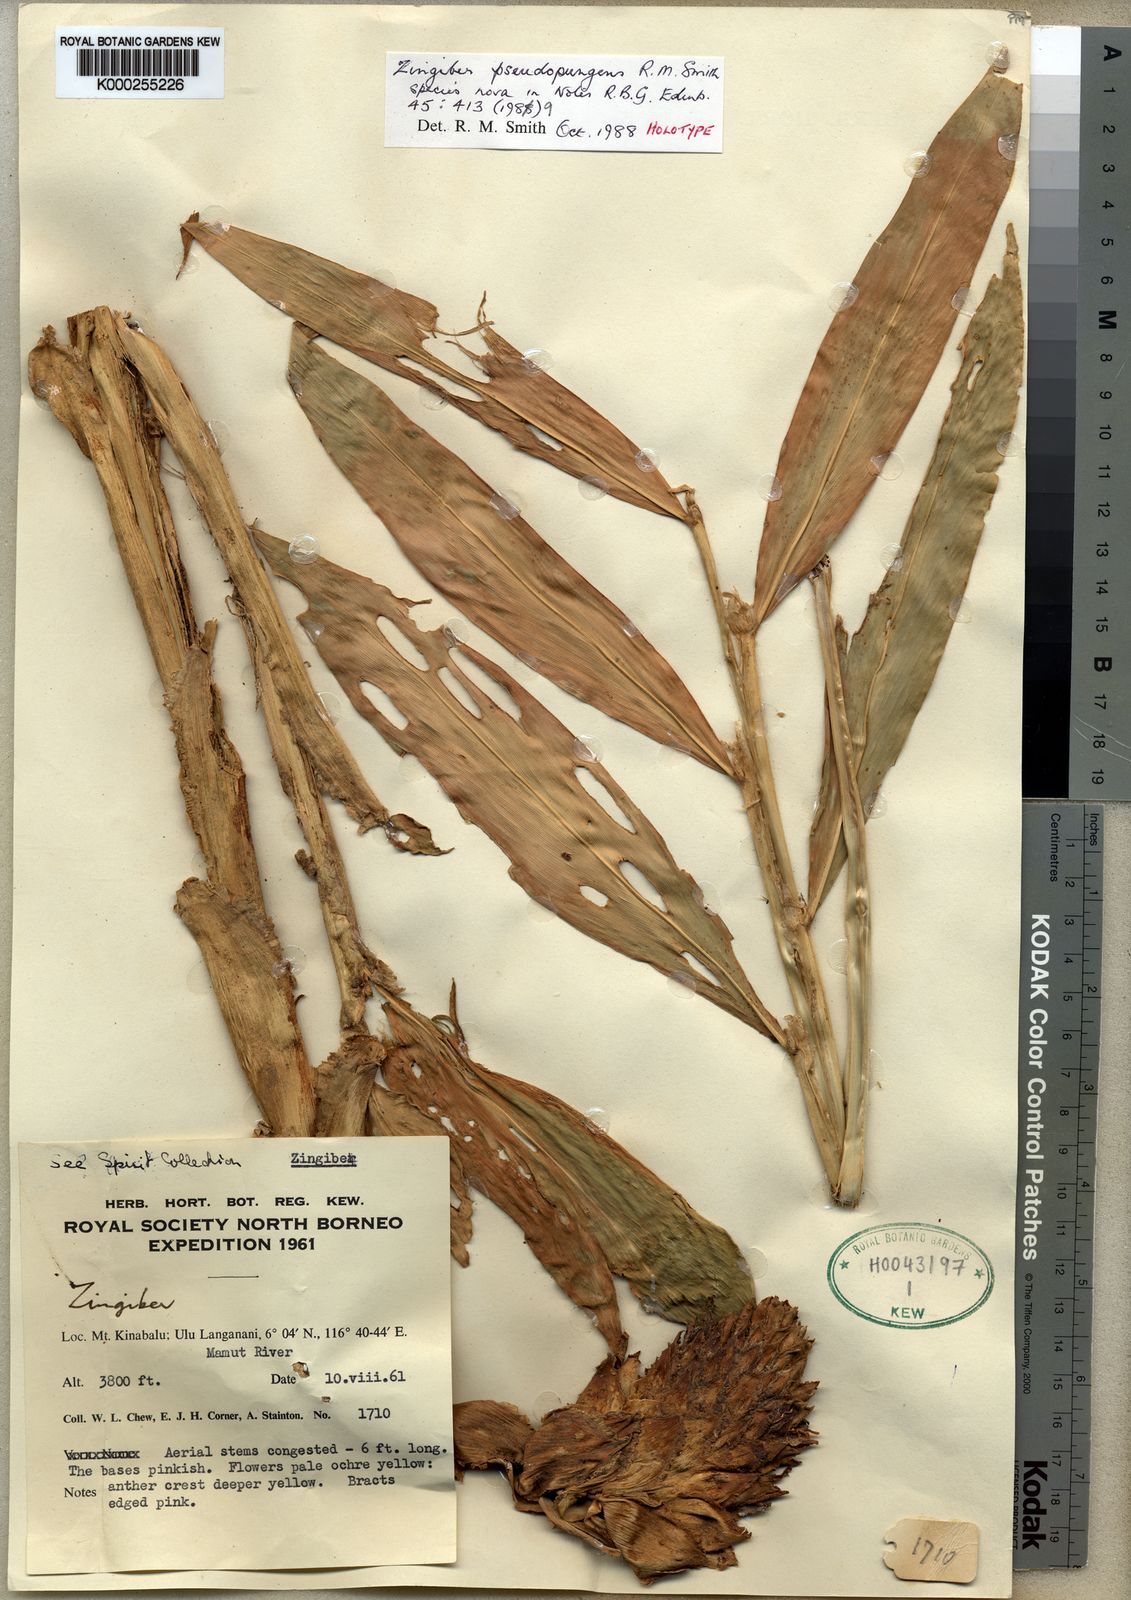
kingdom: Plantae
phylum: Tracheophyta
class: Liliopsida
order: Zingiberales
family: Zingiberaceae
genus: Zingiber
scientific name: Zingiber pseudopungens
